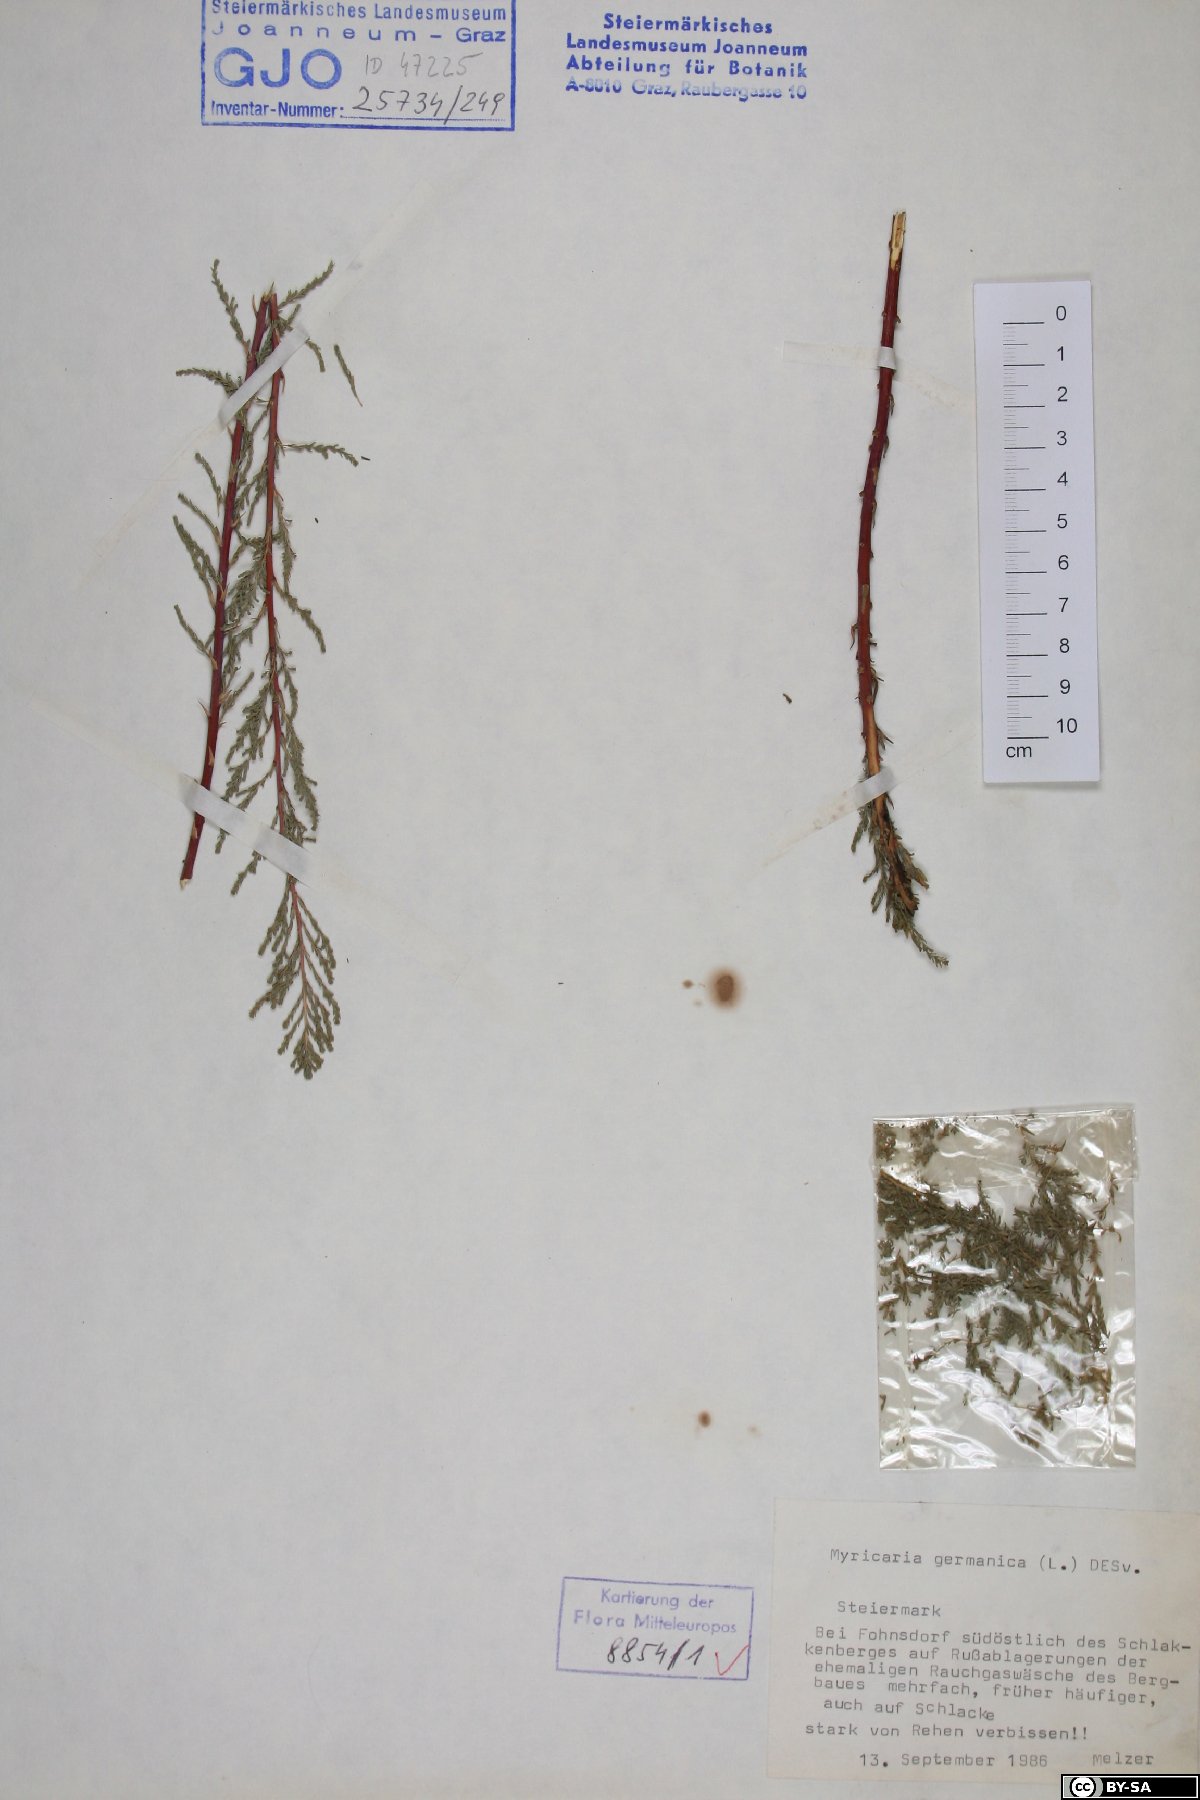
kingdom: Plantae
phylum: Tracheophyta
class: Magnoliopsida
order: Caryophyllales
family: Tamaricaceae
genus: Myricaria
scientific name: Myricaria germanica
